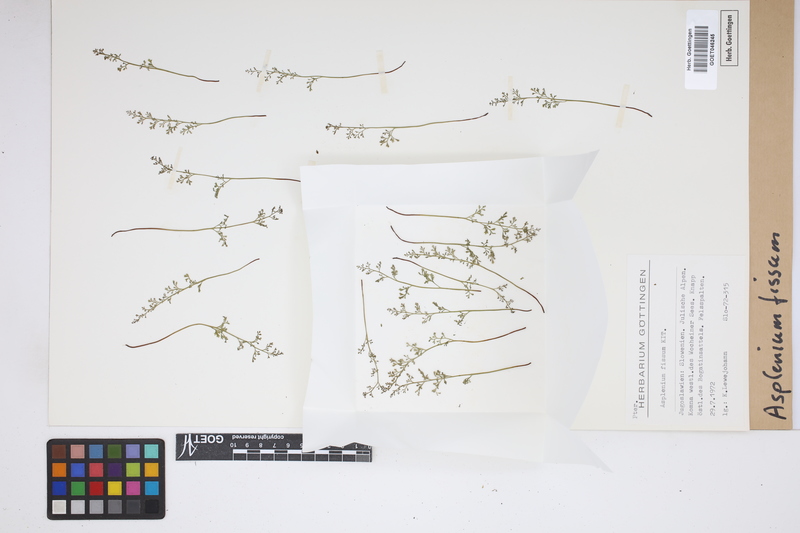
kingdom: Plantae
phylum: Tracheophyta
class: Polypodiopsida
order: Polypodiales
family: Aspleniaceae
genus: Asplenium
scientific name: Asplenium fissum
